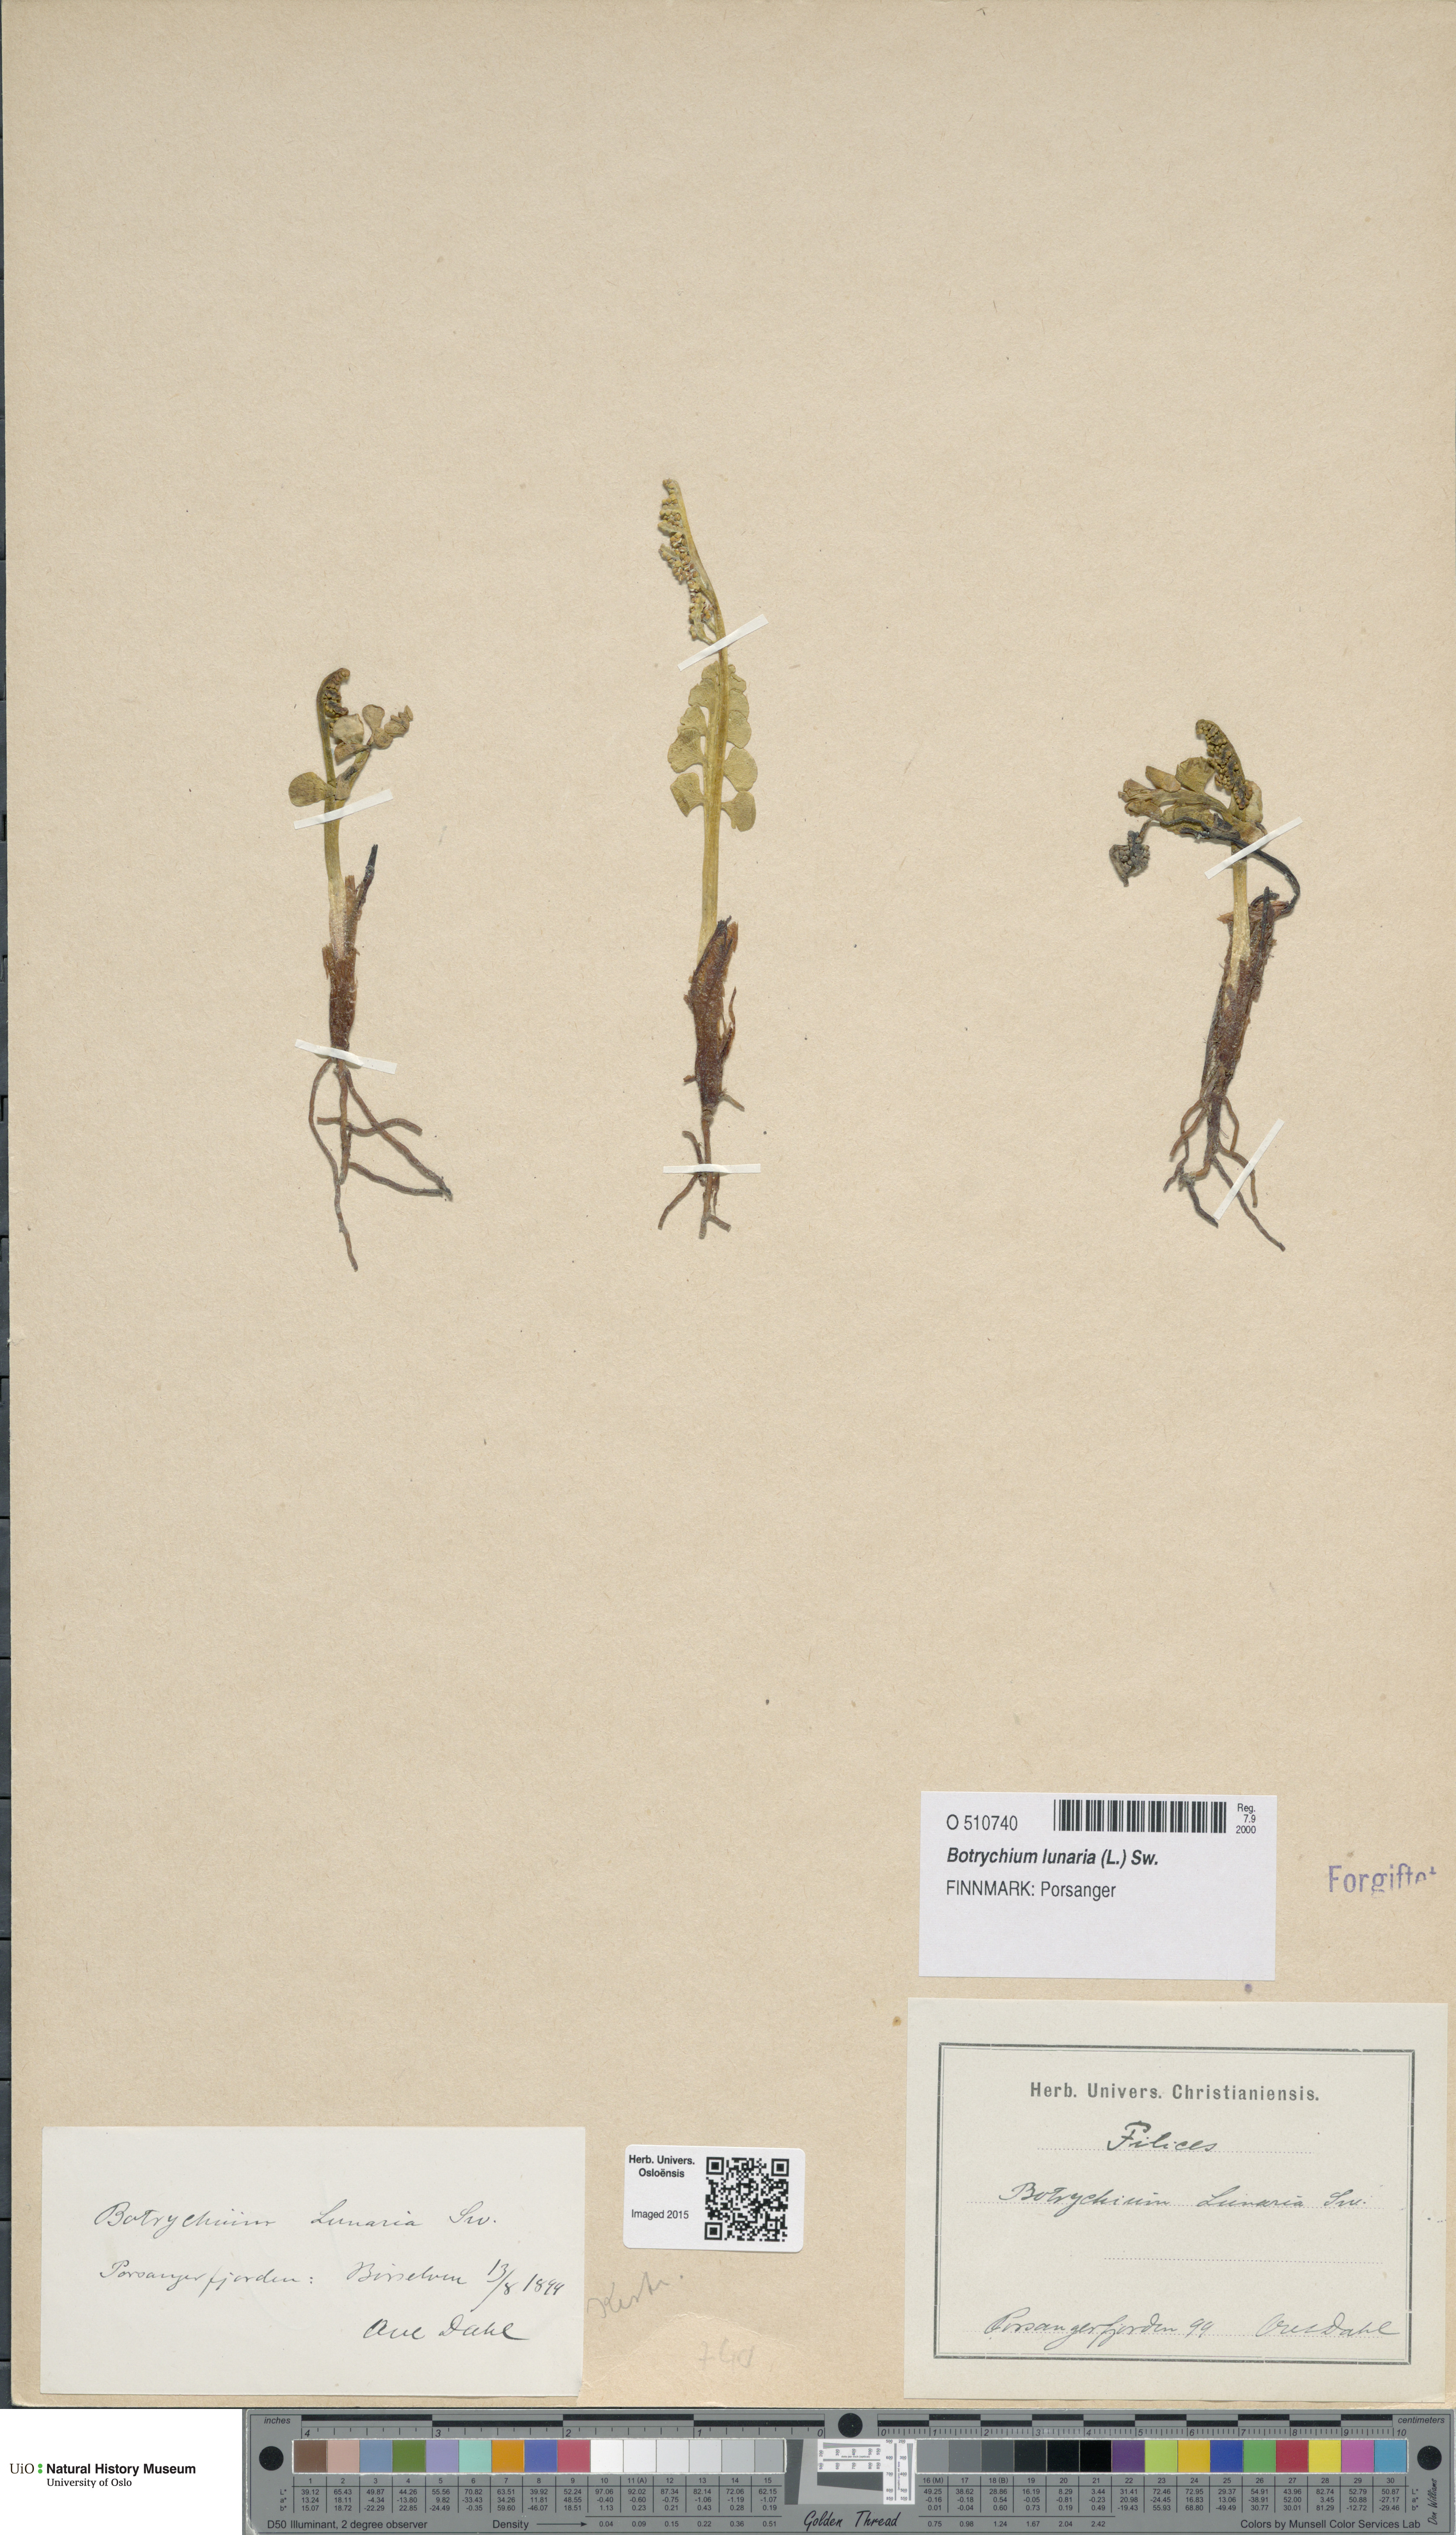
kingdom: Plantae
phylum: Tracheophyta
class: Polypodiopsida
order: Ophioglossales
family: Ophioglossaceae
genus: Botrychium
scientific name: Botrychium lunaria
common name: Moonwort
